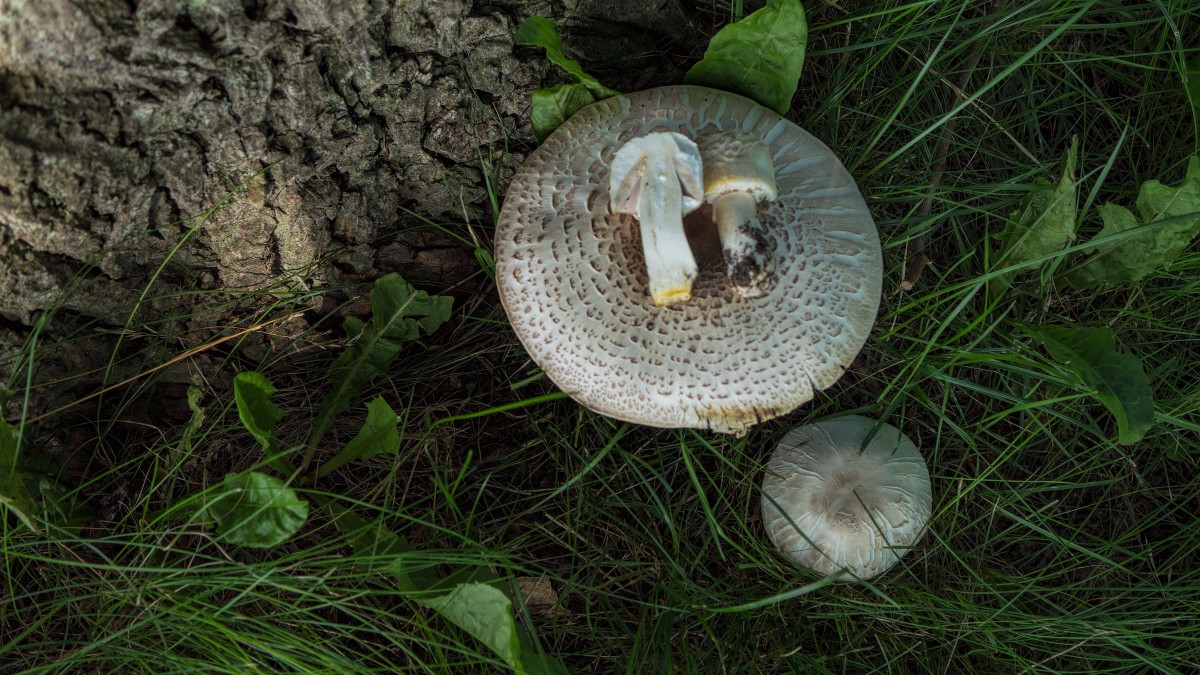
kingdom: Fungi
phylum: Basidiomycota
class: Agaricomycetes
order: Agaricales
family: Agaricaceae
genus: Agaricus
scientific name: Agaricus xanthodermus
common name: karbol-champignon
